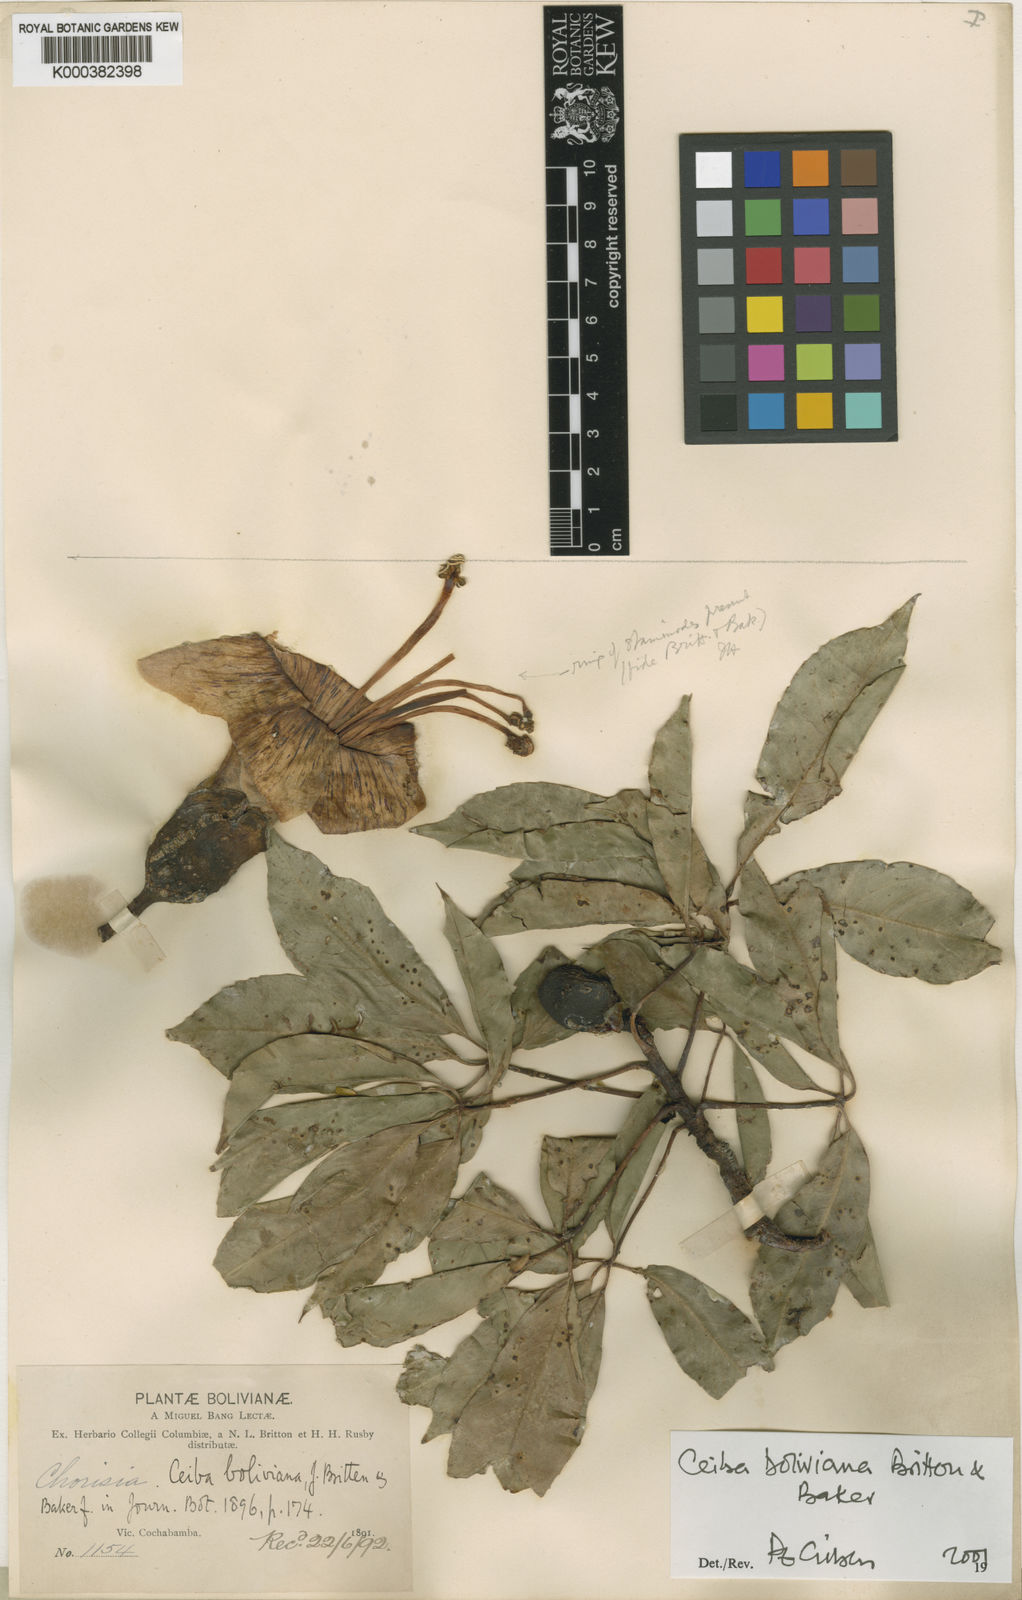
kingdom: Plantae
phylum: Tracheophyta
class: Magnoliopsida
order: Malvales
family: Malvaceae
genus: Ceiba
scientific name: Ceiba boliviana
